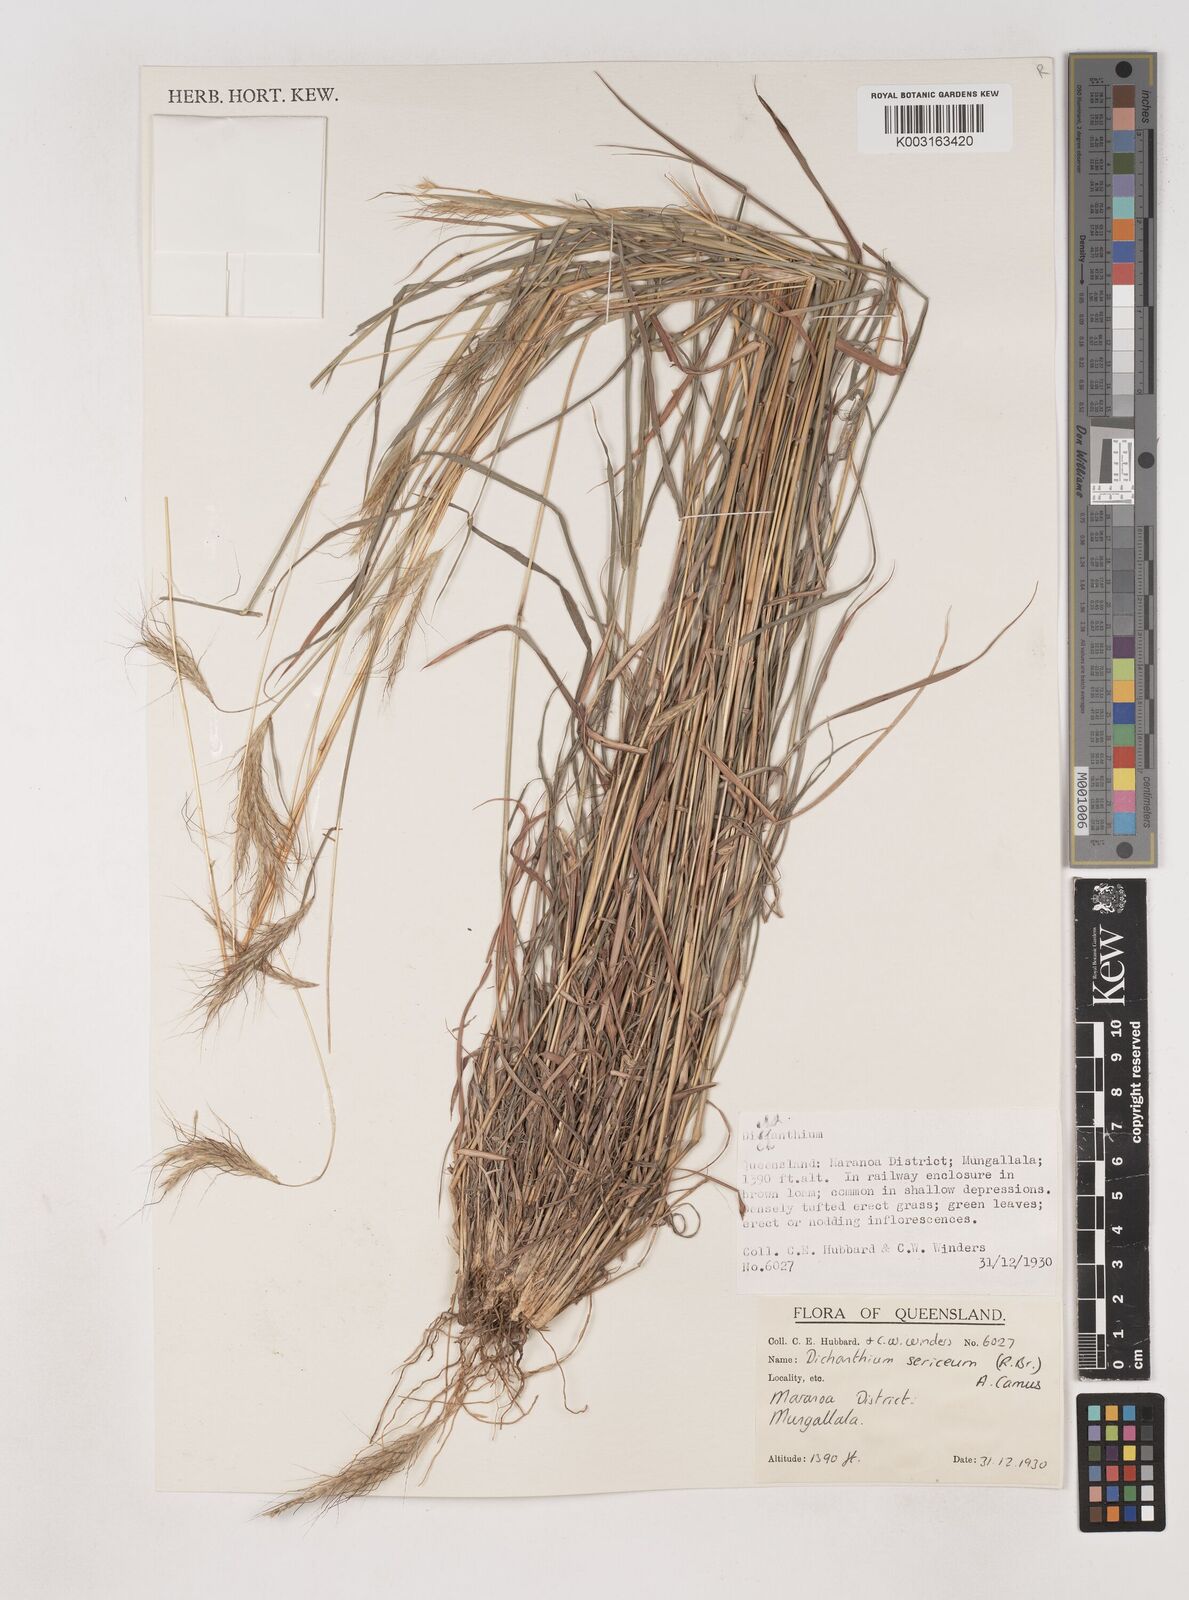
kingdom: Plantae
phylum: Tracheophyta
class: Liliopsida
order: Poales
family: Poaceae
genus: Dichanthium
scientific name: Dichanthium sericeum
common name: Silky bluestem
